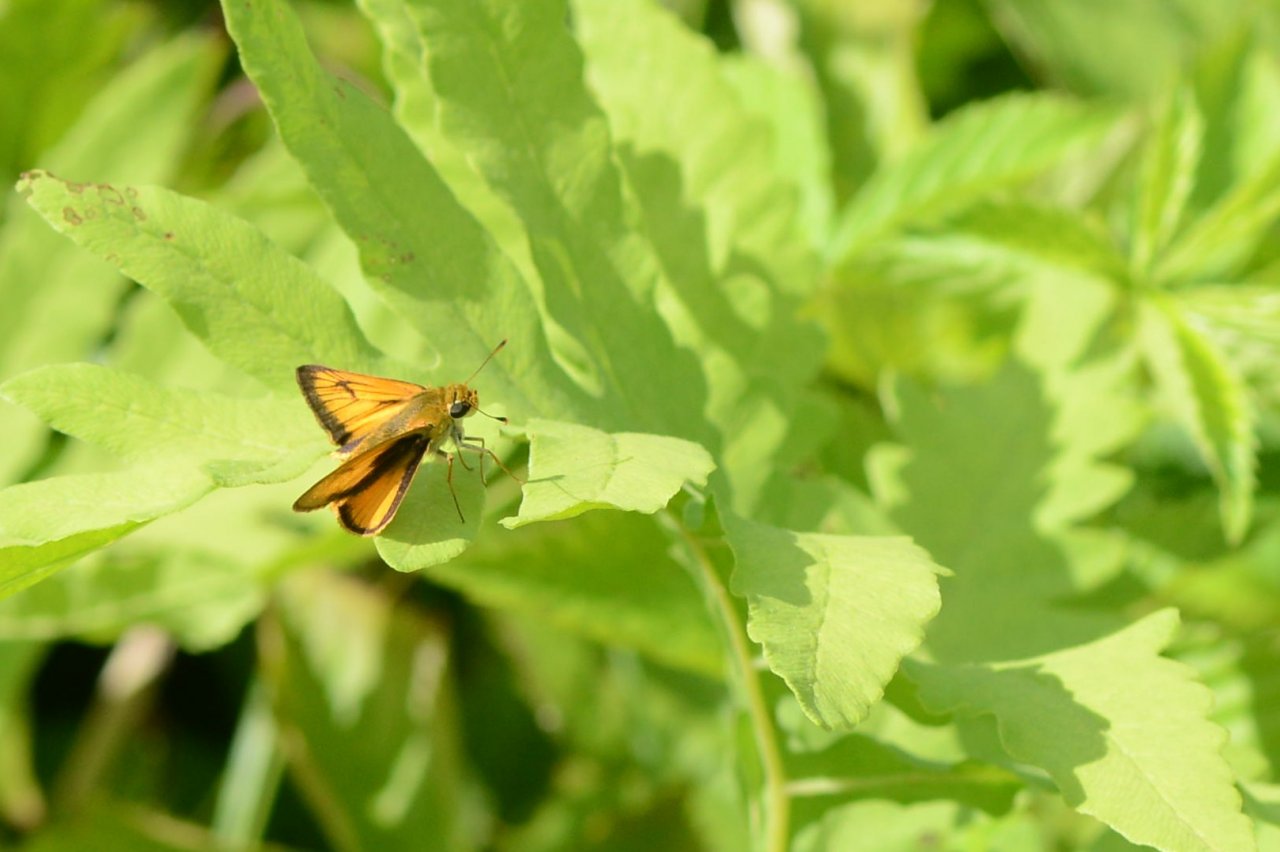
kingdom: Animalia
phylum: Arthropoda
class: Insecta
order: Lepidoptera
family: Hesperiidae
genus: Atrytone
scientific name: Atrytone delaware
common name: Delaware Skipper
